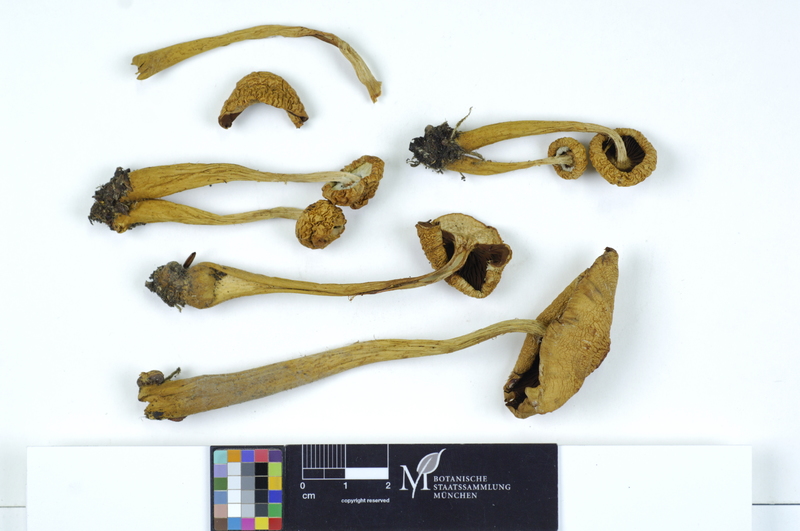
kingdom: Plantae
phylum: Tracheophyta
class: Magnoliopsida
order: Fagales
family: Fagaceae
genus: Fagus
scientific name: Fagus sylvatica
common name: Beech
